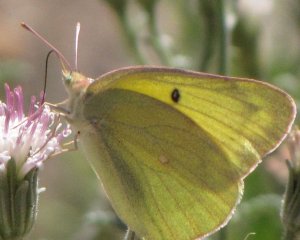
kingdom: Animalia
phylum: Arthropoda
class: Insecta
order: Lepidoptera
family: Pieridae
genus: Colias
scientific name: Colias alexandra
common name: Queen Alexandra's Sulphur
